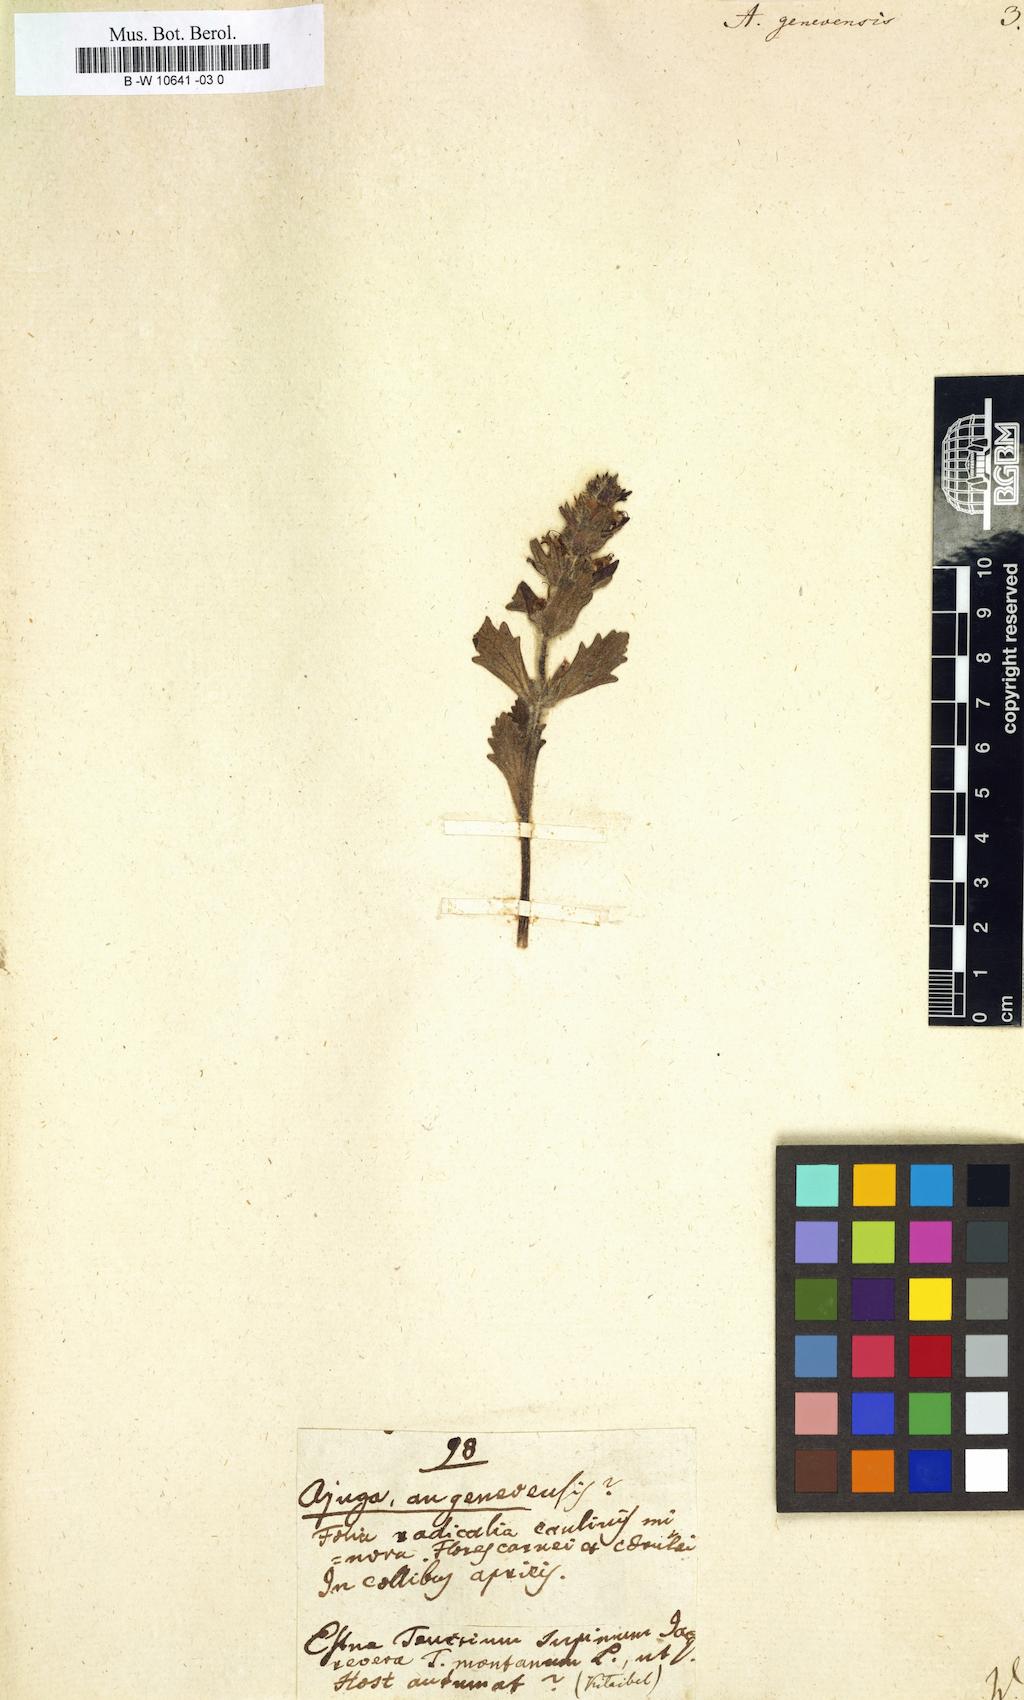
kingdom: Plantae
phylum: Tracheophyta
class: Magnoliopsida
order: Lamiales
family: Lamiaceae
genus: Ajuga
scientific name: Ajuga genevensis
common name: Blue bugle
